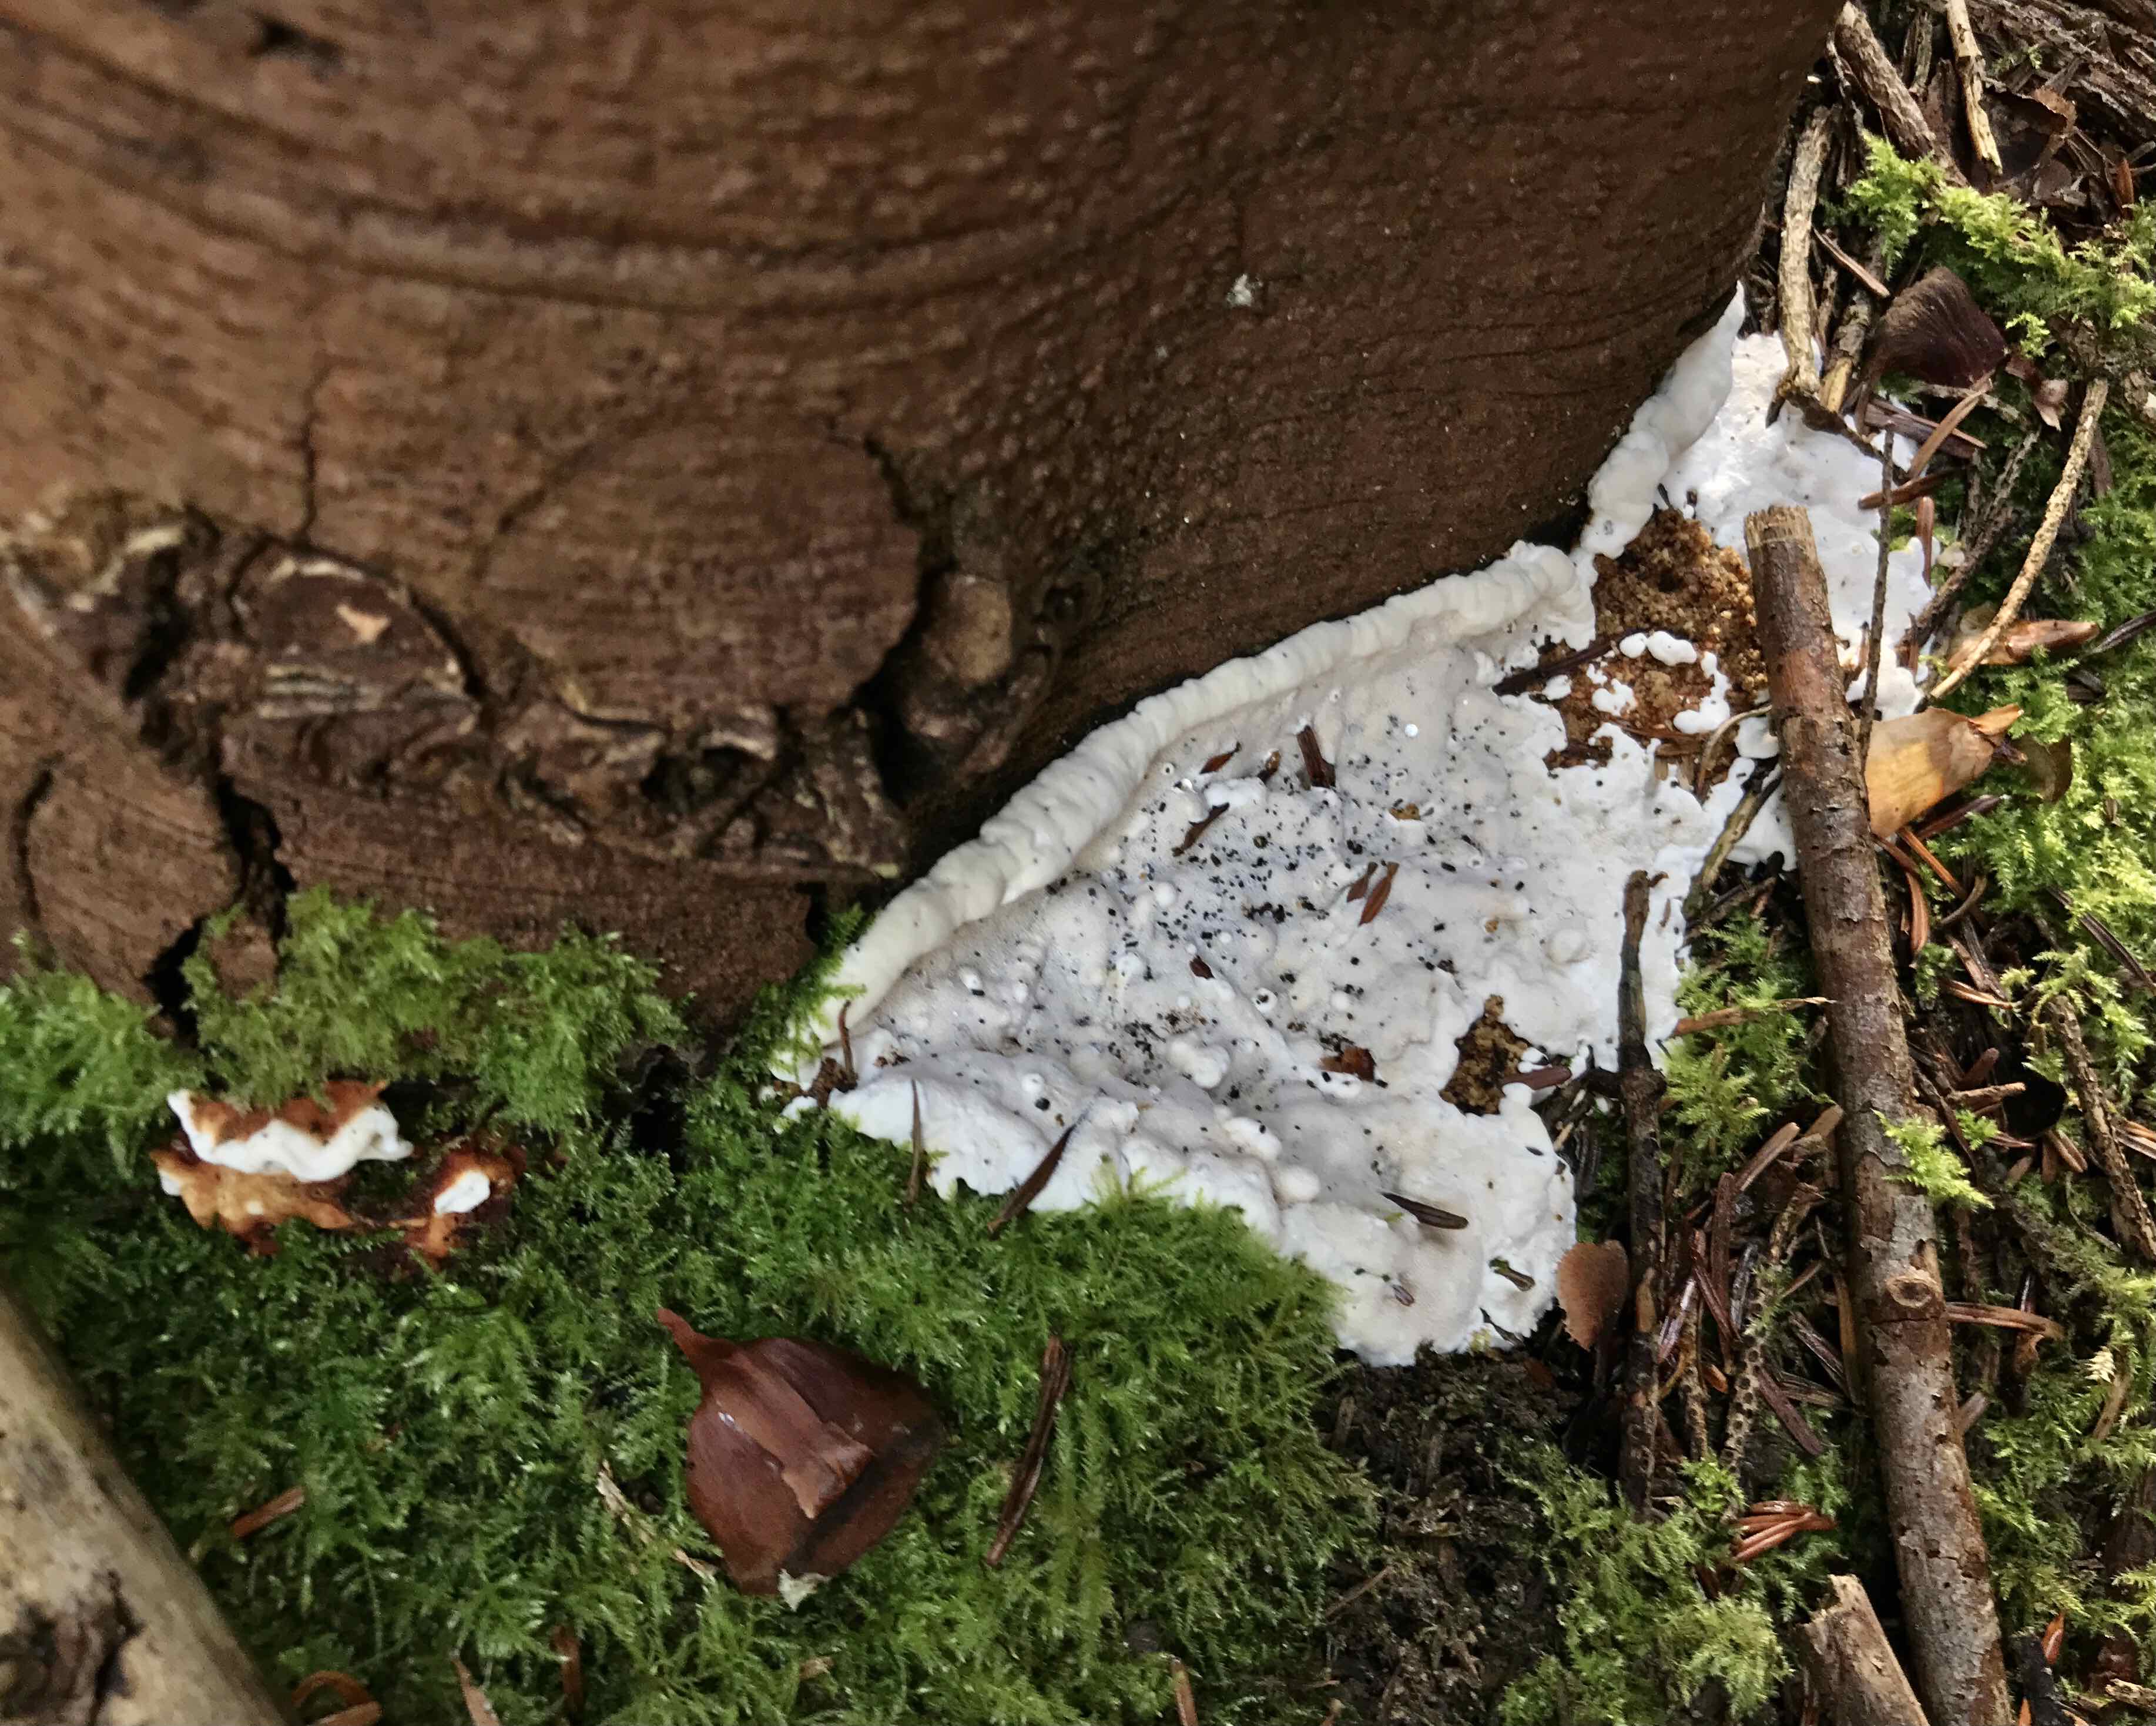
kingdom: Fungi
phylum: Basidiomycota
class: Agaricomycetes
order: Russulales
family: Bondarzewiaceae
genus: Heterobasidion
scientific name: Heterobasidion annosum
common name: almindelig rodfordærver
